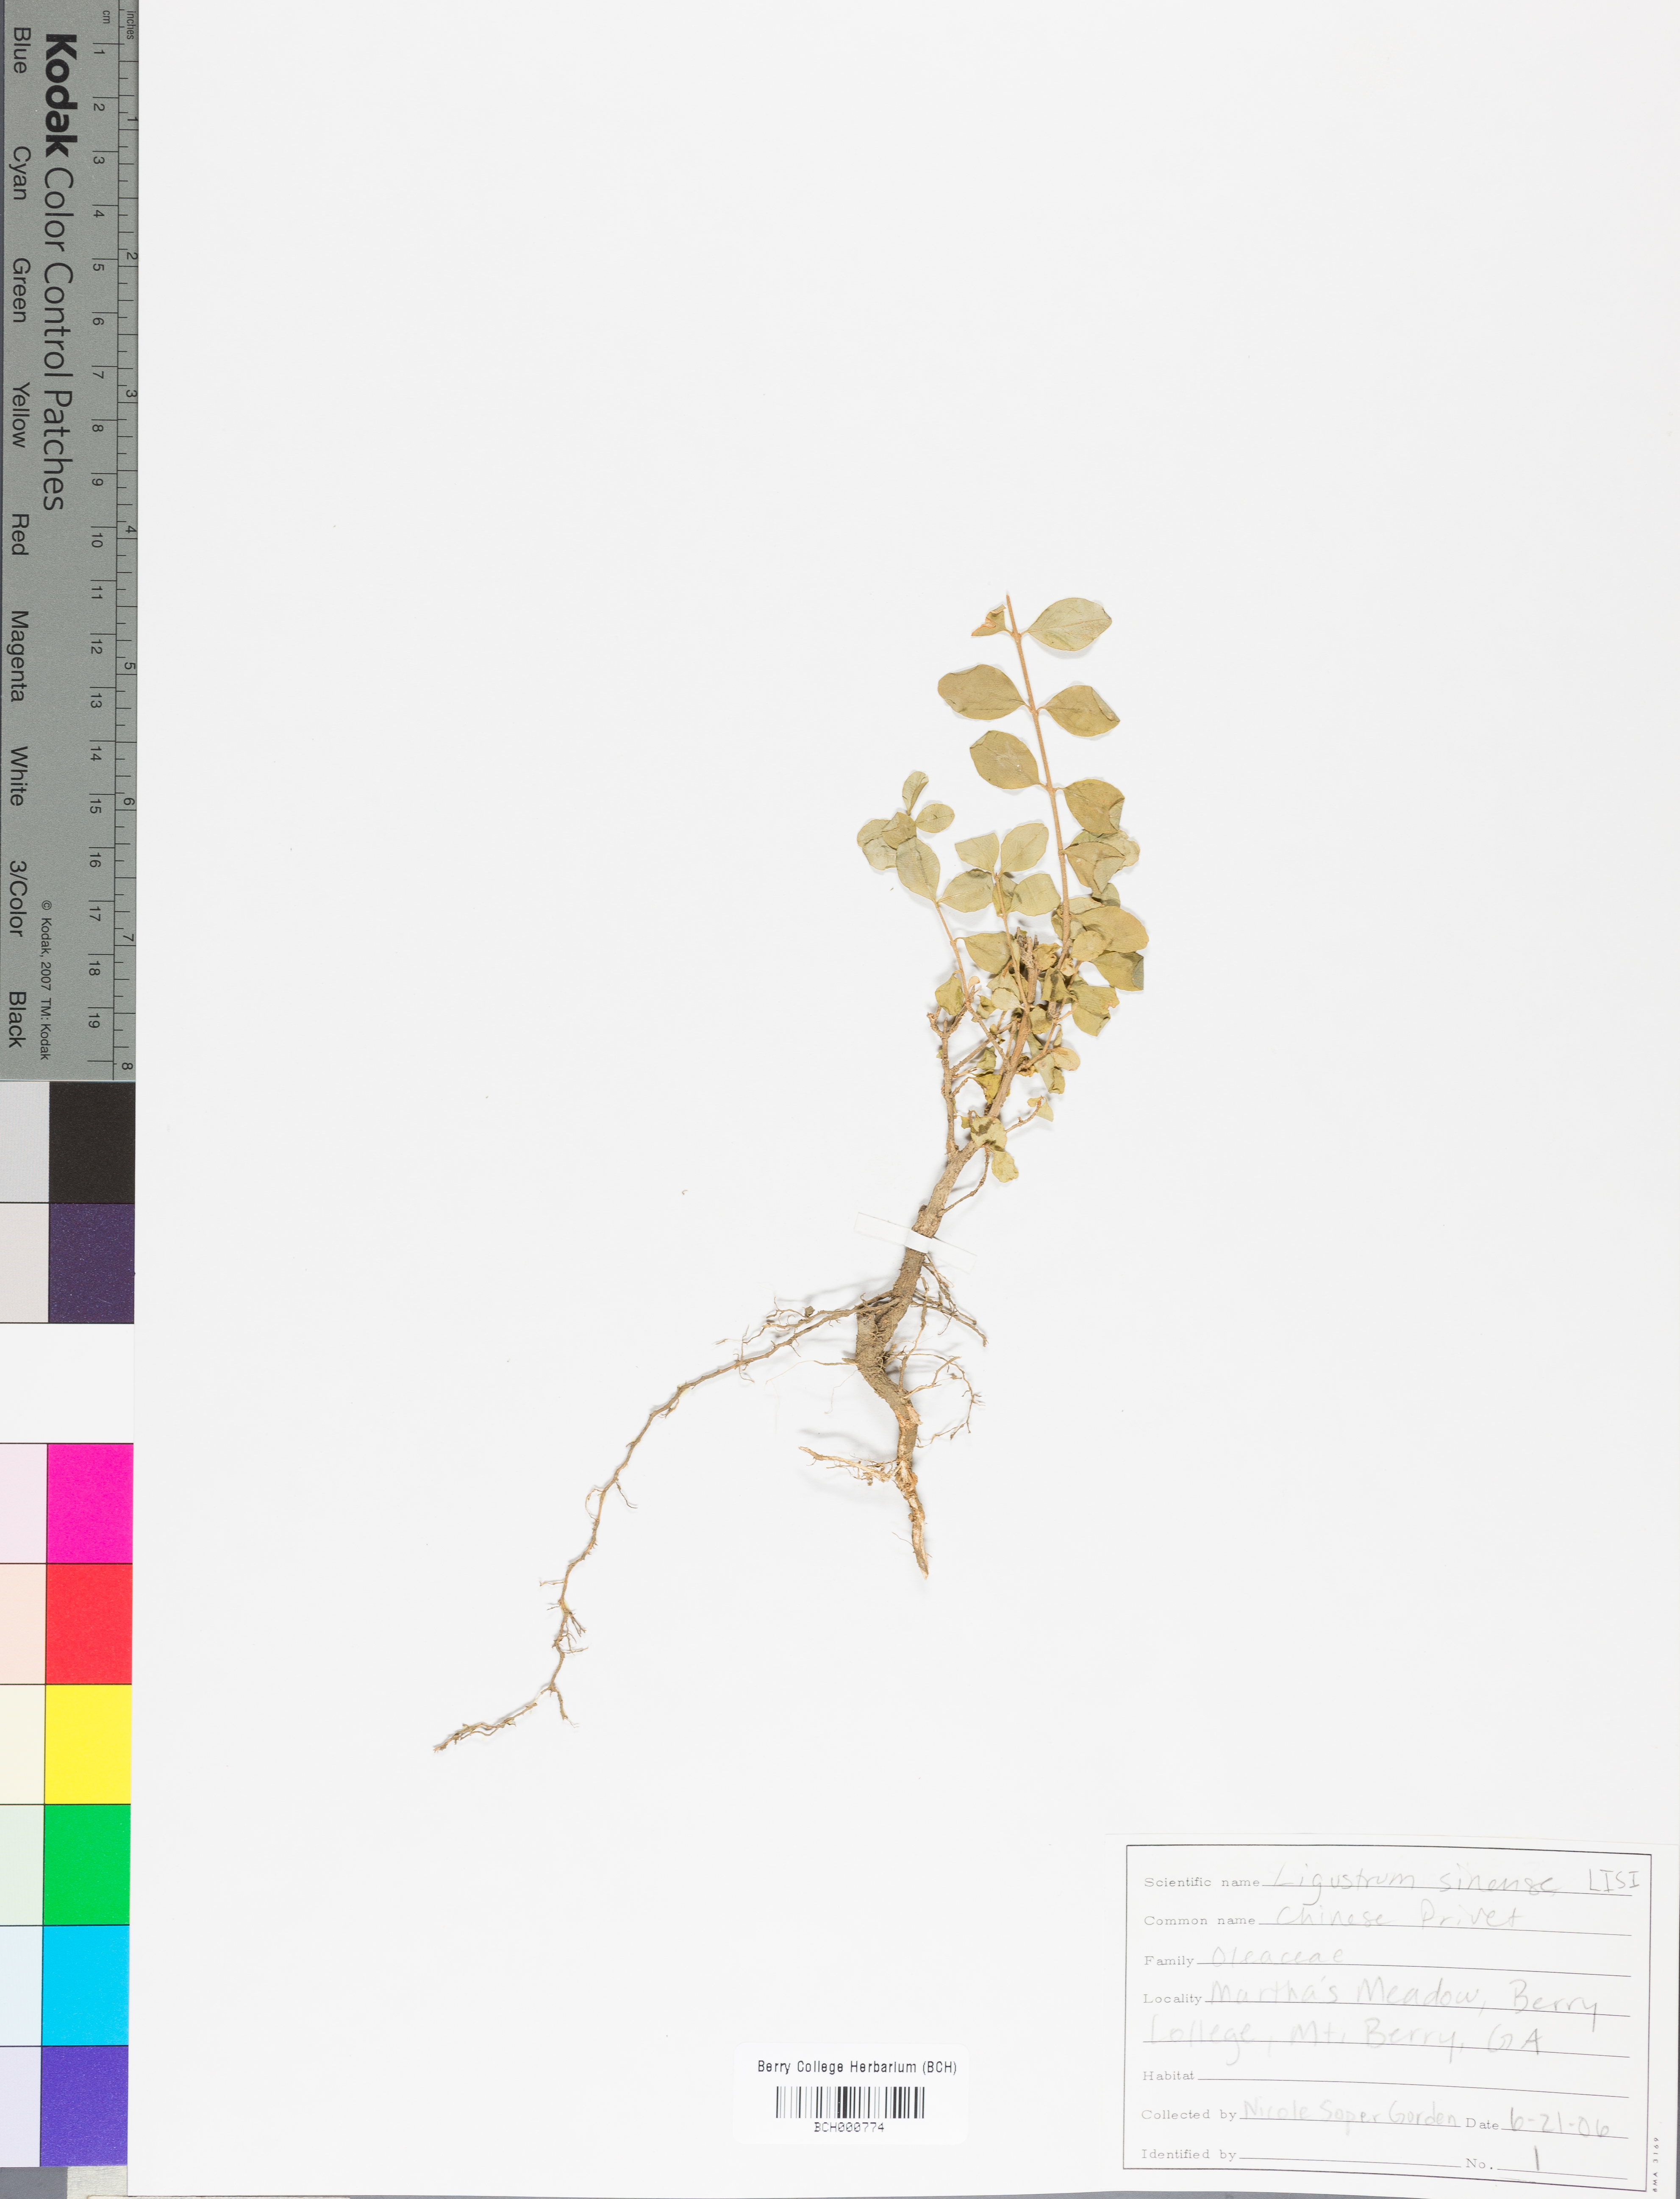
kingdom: Plantae
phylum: Tracheophyta
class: Magnoliopsida
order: Lamiales
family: Oleaceae
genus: Ligustrum
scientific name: Ligustrum sinense
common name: Chinese privet
